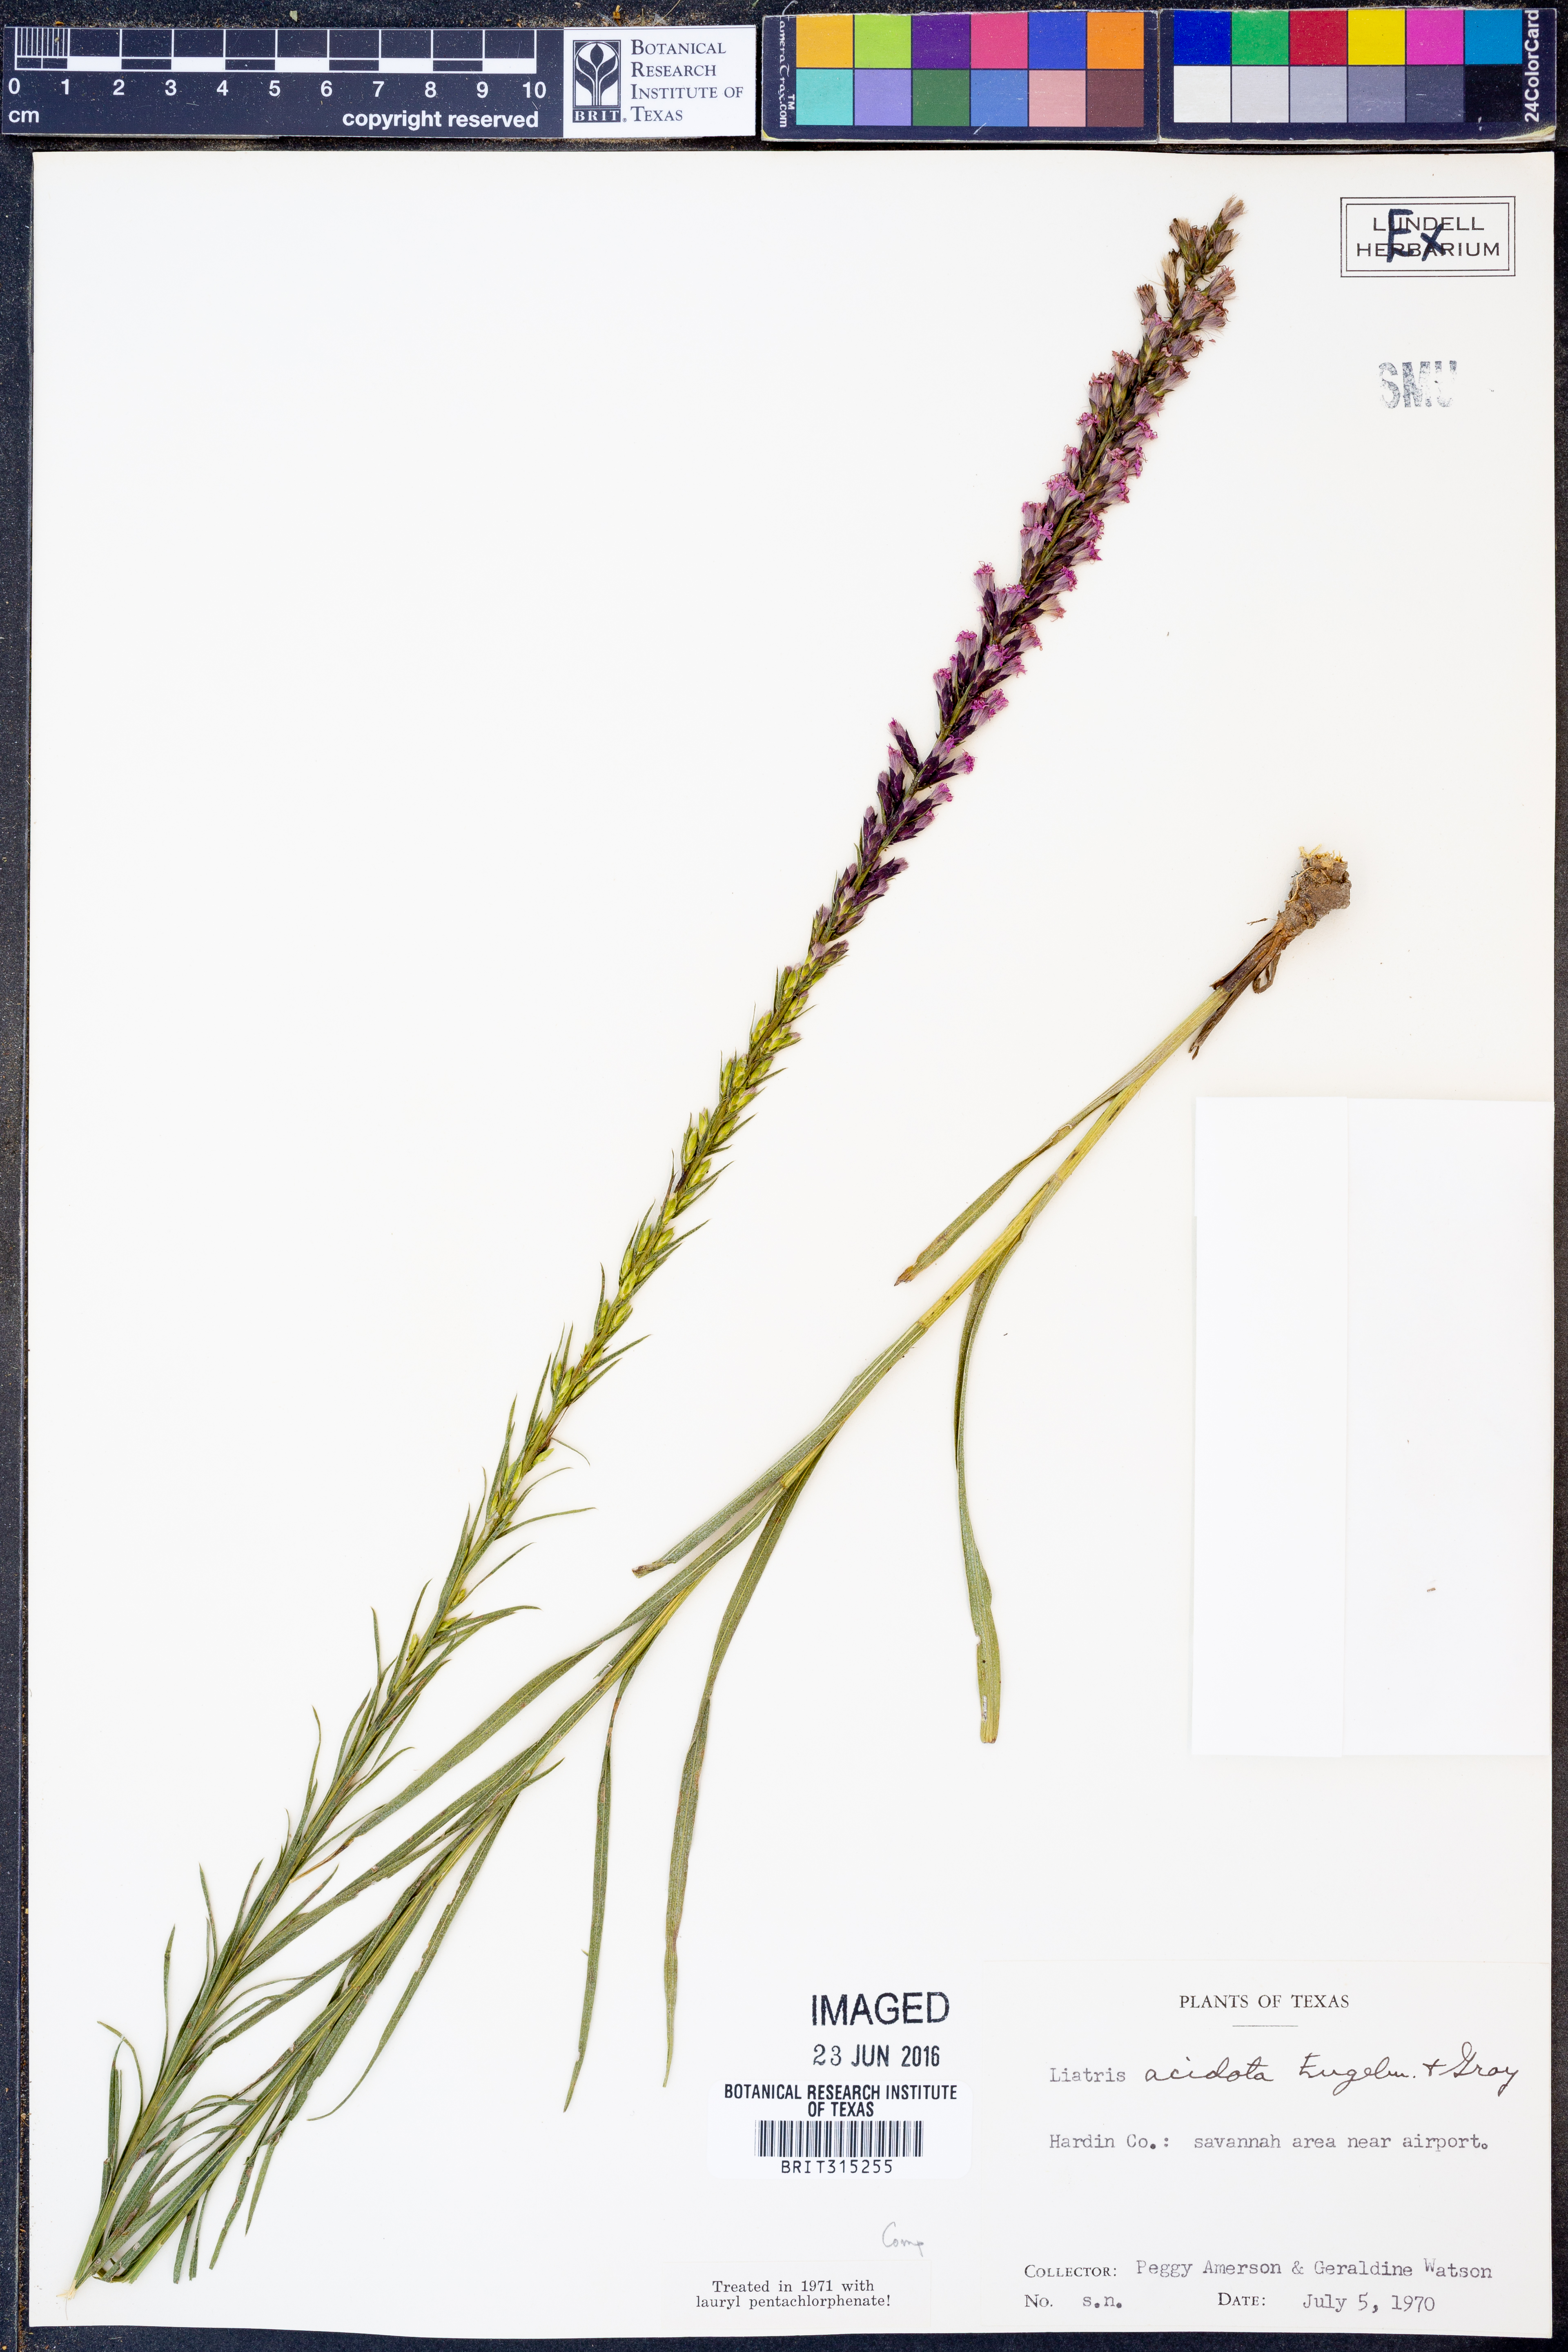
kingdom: Plantae
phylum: Tracheophyta
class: Magnoliopsida
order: Asterales
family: Asteraceae
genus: Liatris
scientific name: Liatris acidota
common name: Gulf coast gayfeather
